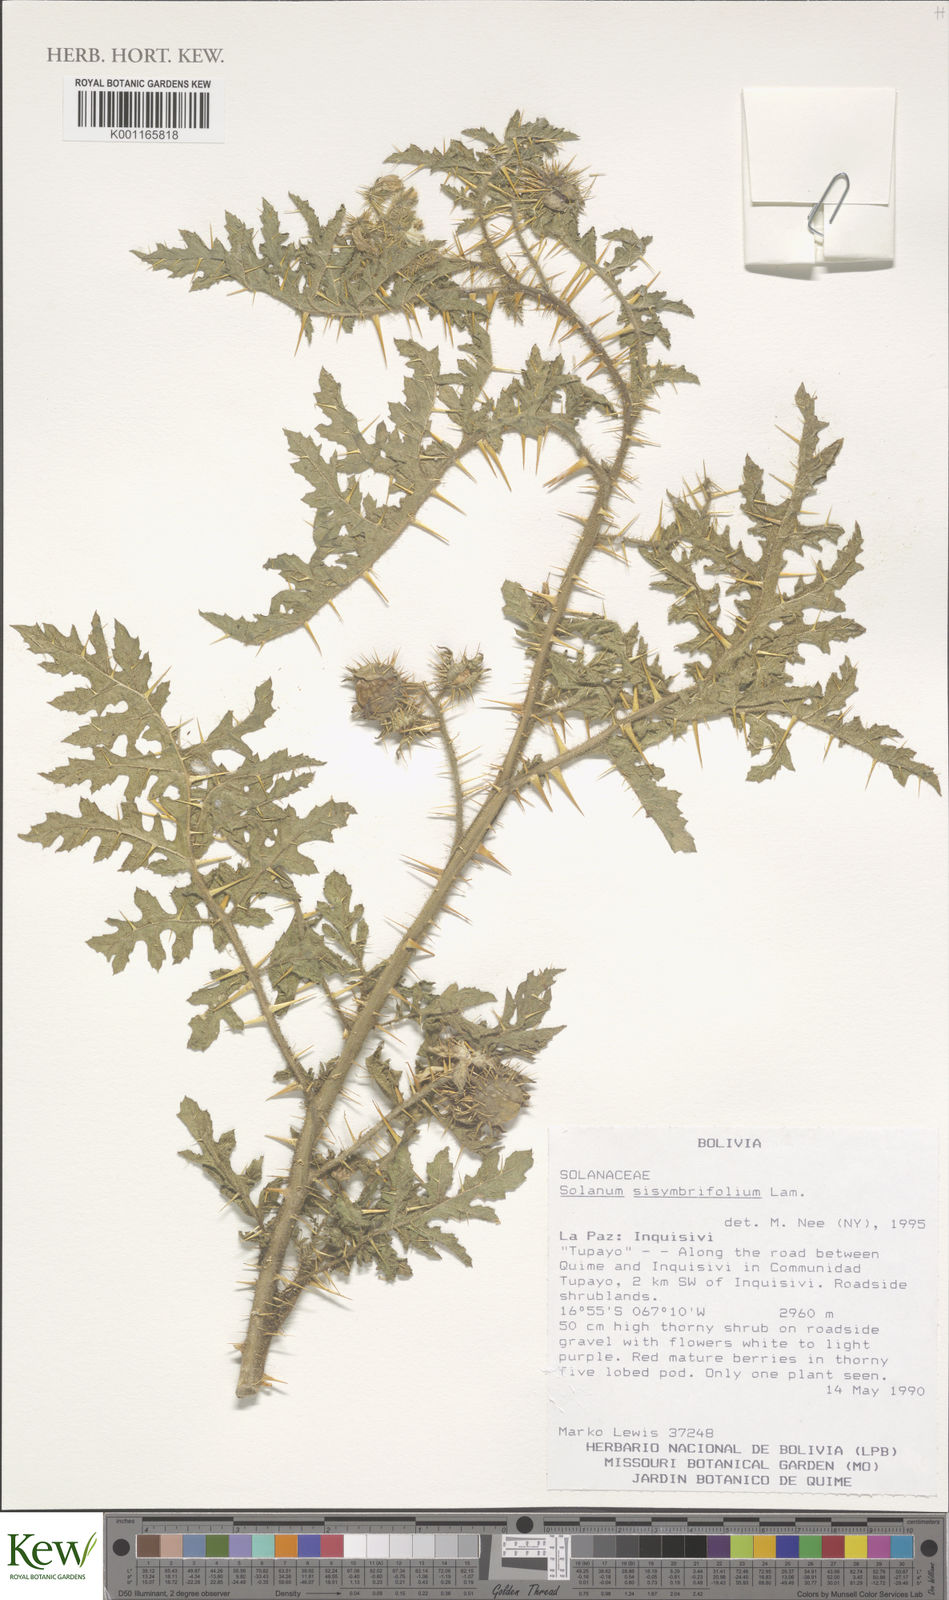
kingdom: Plantae
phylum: Tracheophyta
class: Magnoliopsida
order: Solanales
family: Solanaceae
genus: Solanum
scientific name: Solanum sisymbriifolium
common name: Red buffalo-bur
